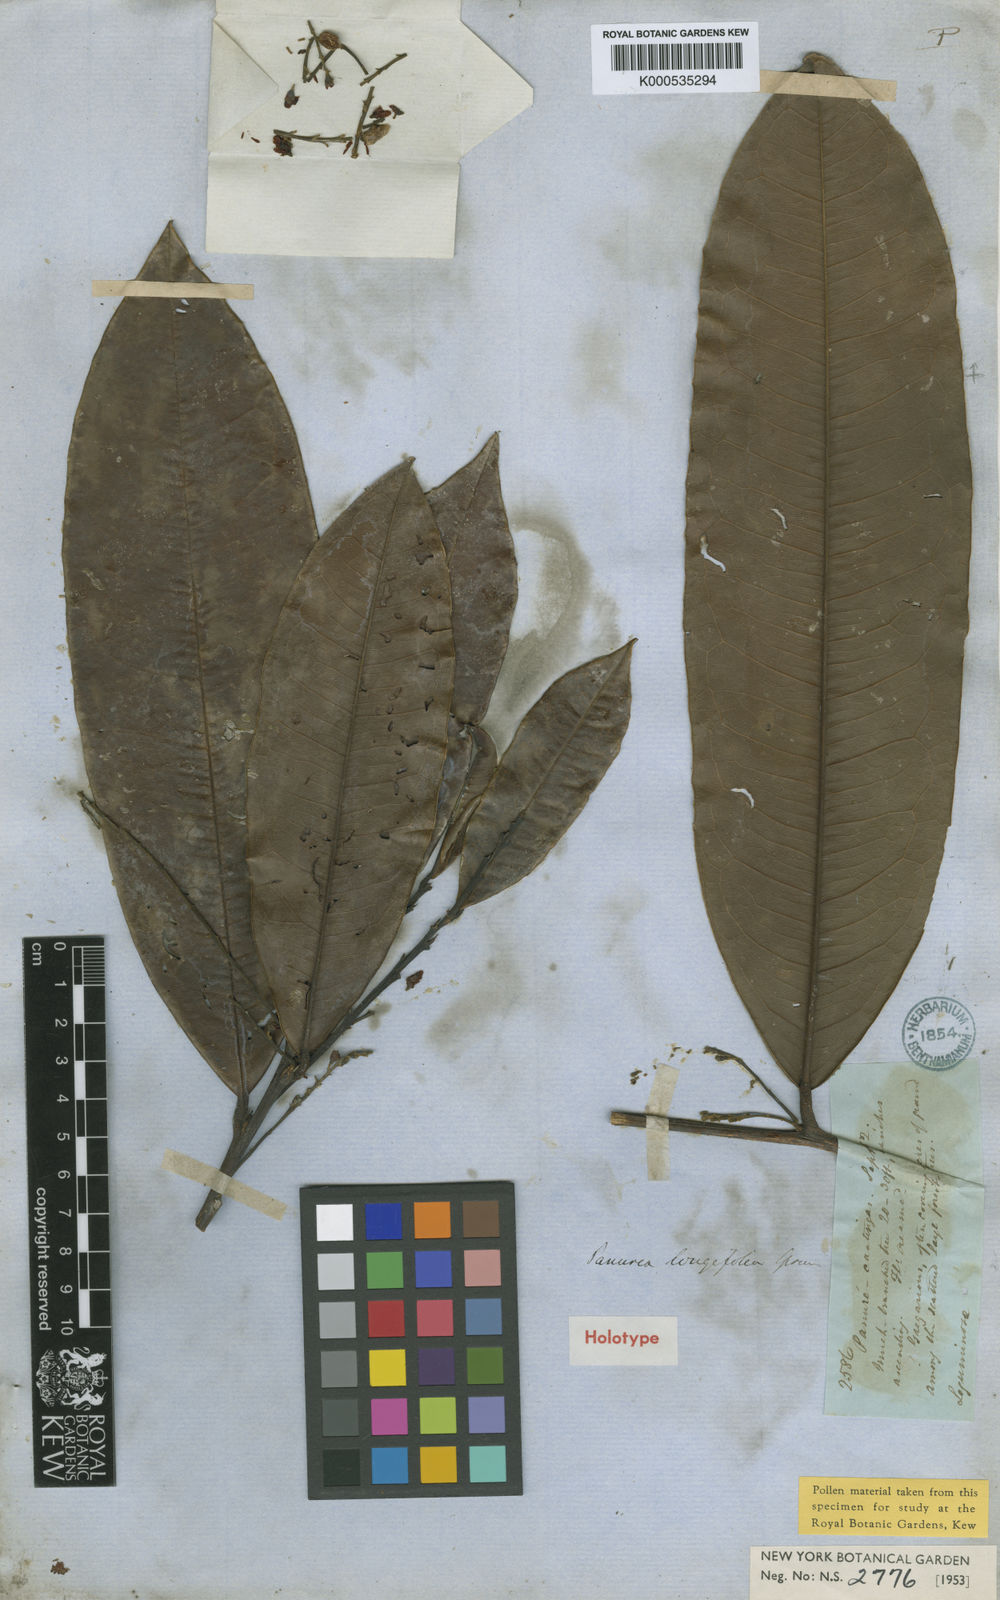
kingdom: Plantae
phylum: Tracheophyta
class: Magnoliopsida
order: Fabales
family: Fabaceae
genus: Panurea
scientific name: Panurea longifolia
